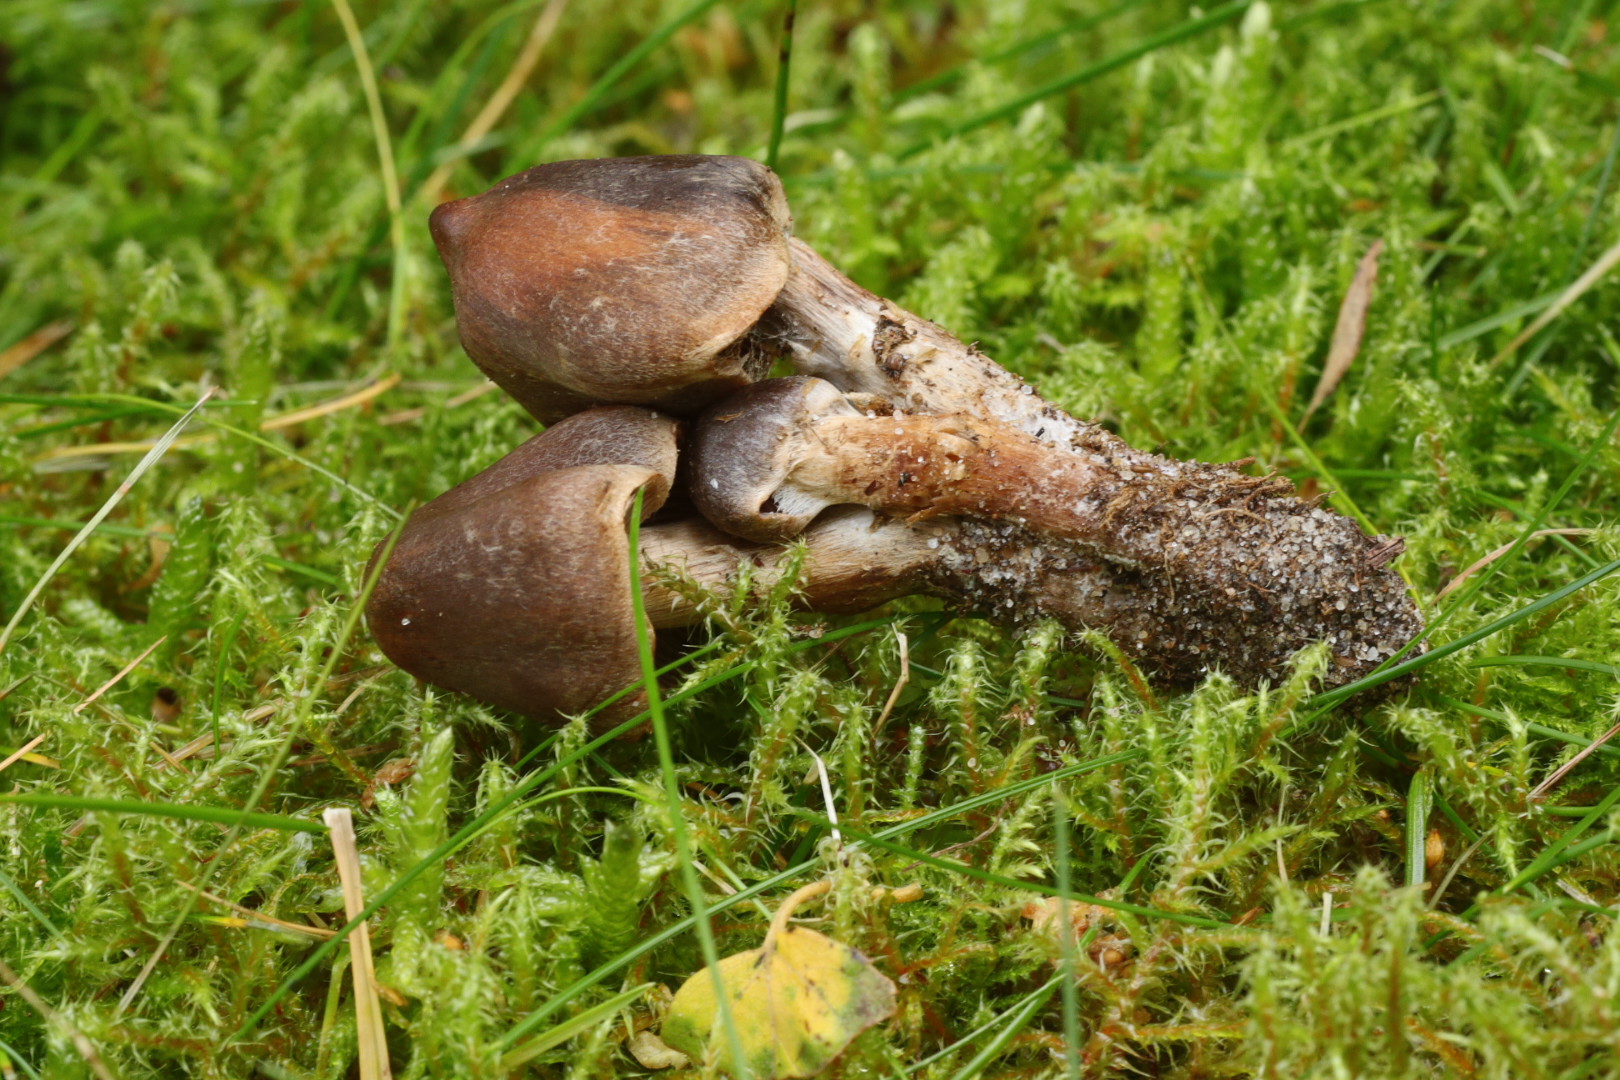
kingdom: Fungi
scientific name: Fungi
